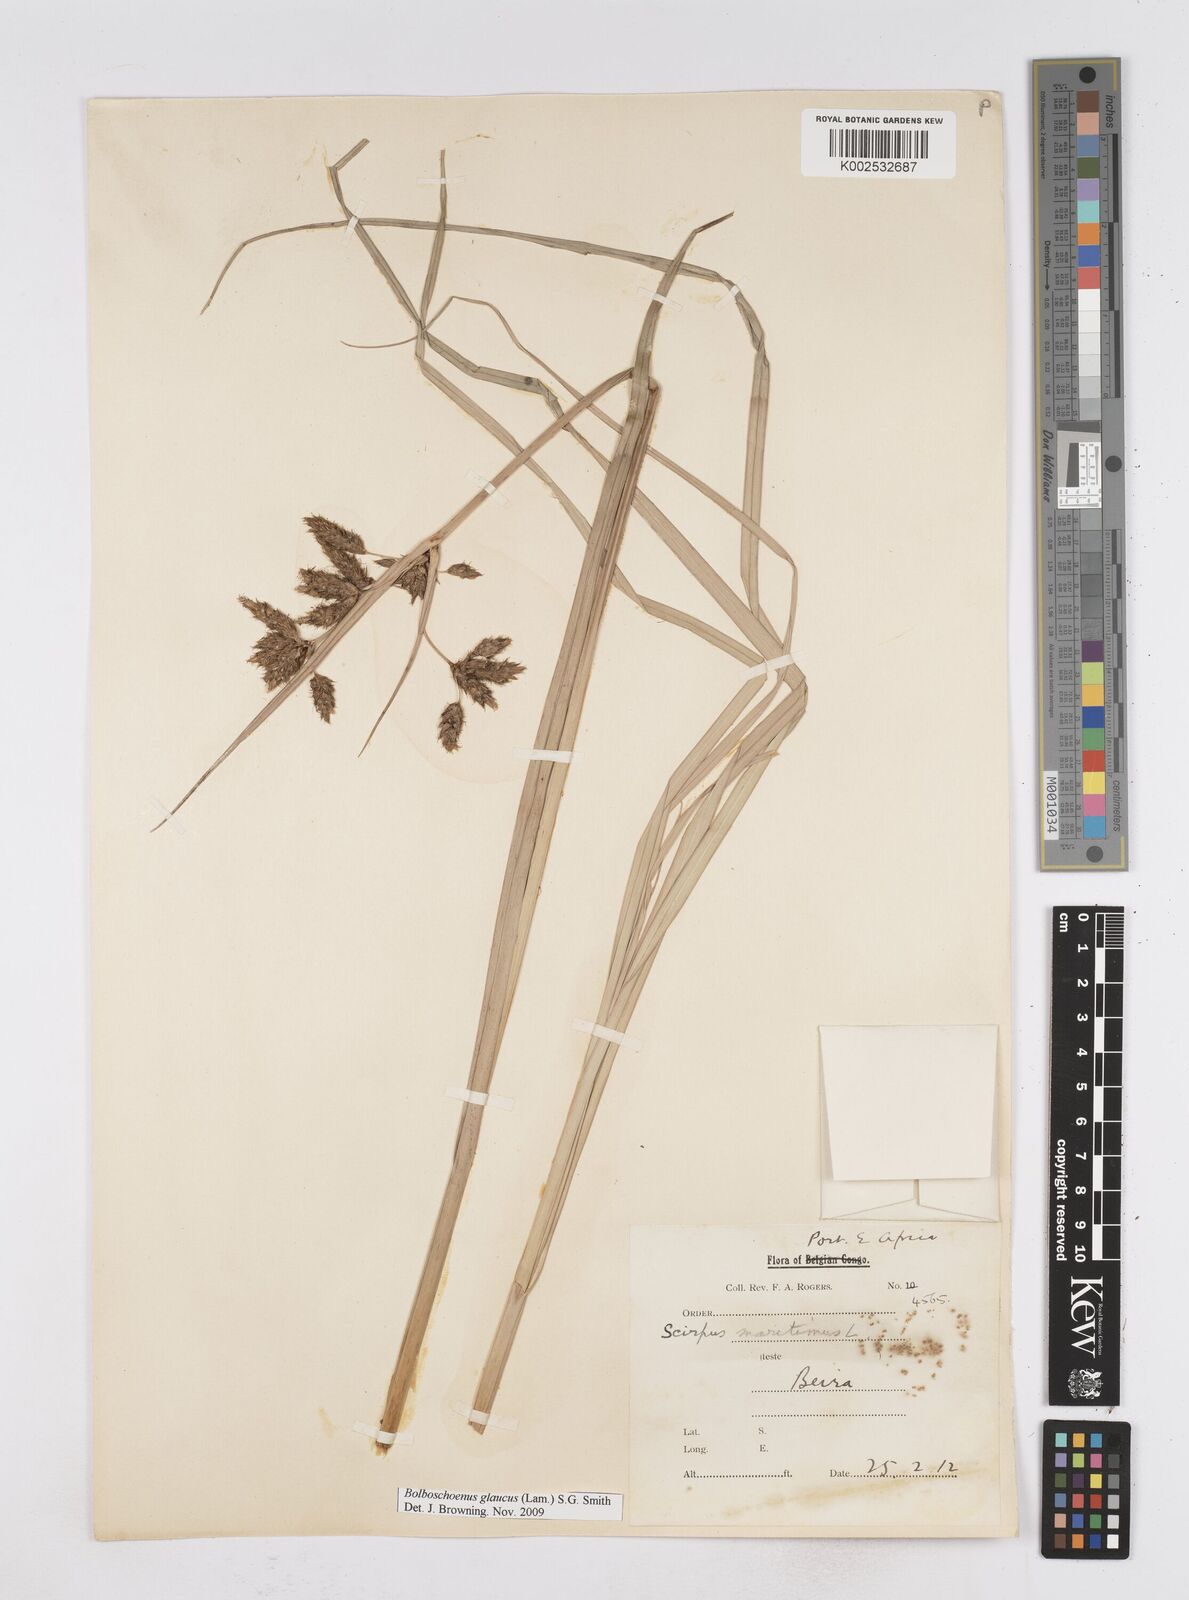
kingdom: Plantae
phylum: Tracheophyta
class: Liliopsida
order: Poales
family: Cyperaceae
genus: Bolboschoenus
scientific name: Bolboschoenus glaucus
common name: Tuberous bulrush
